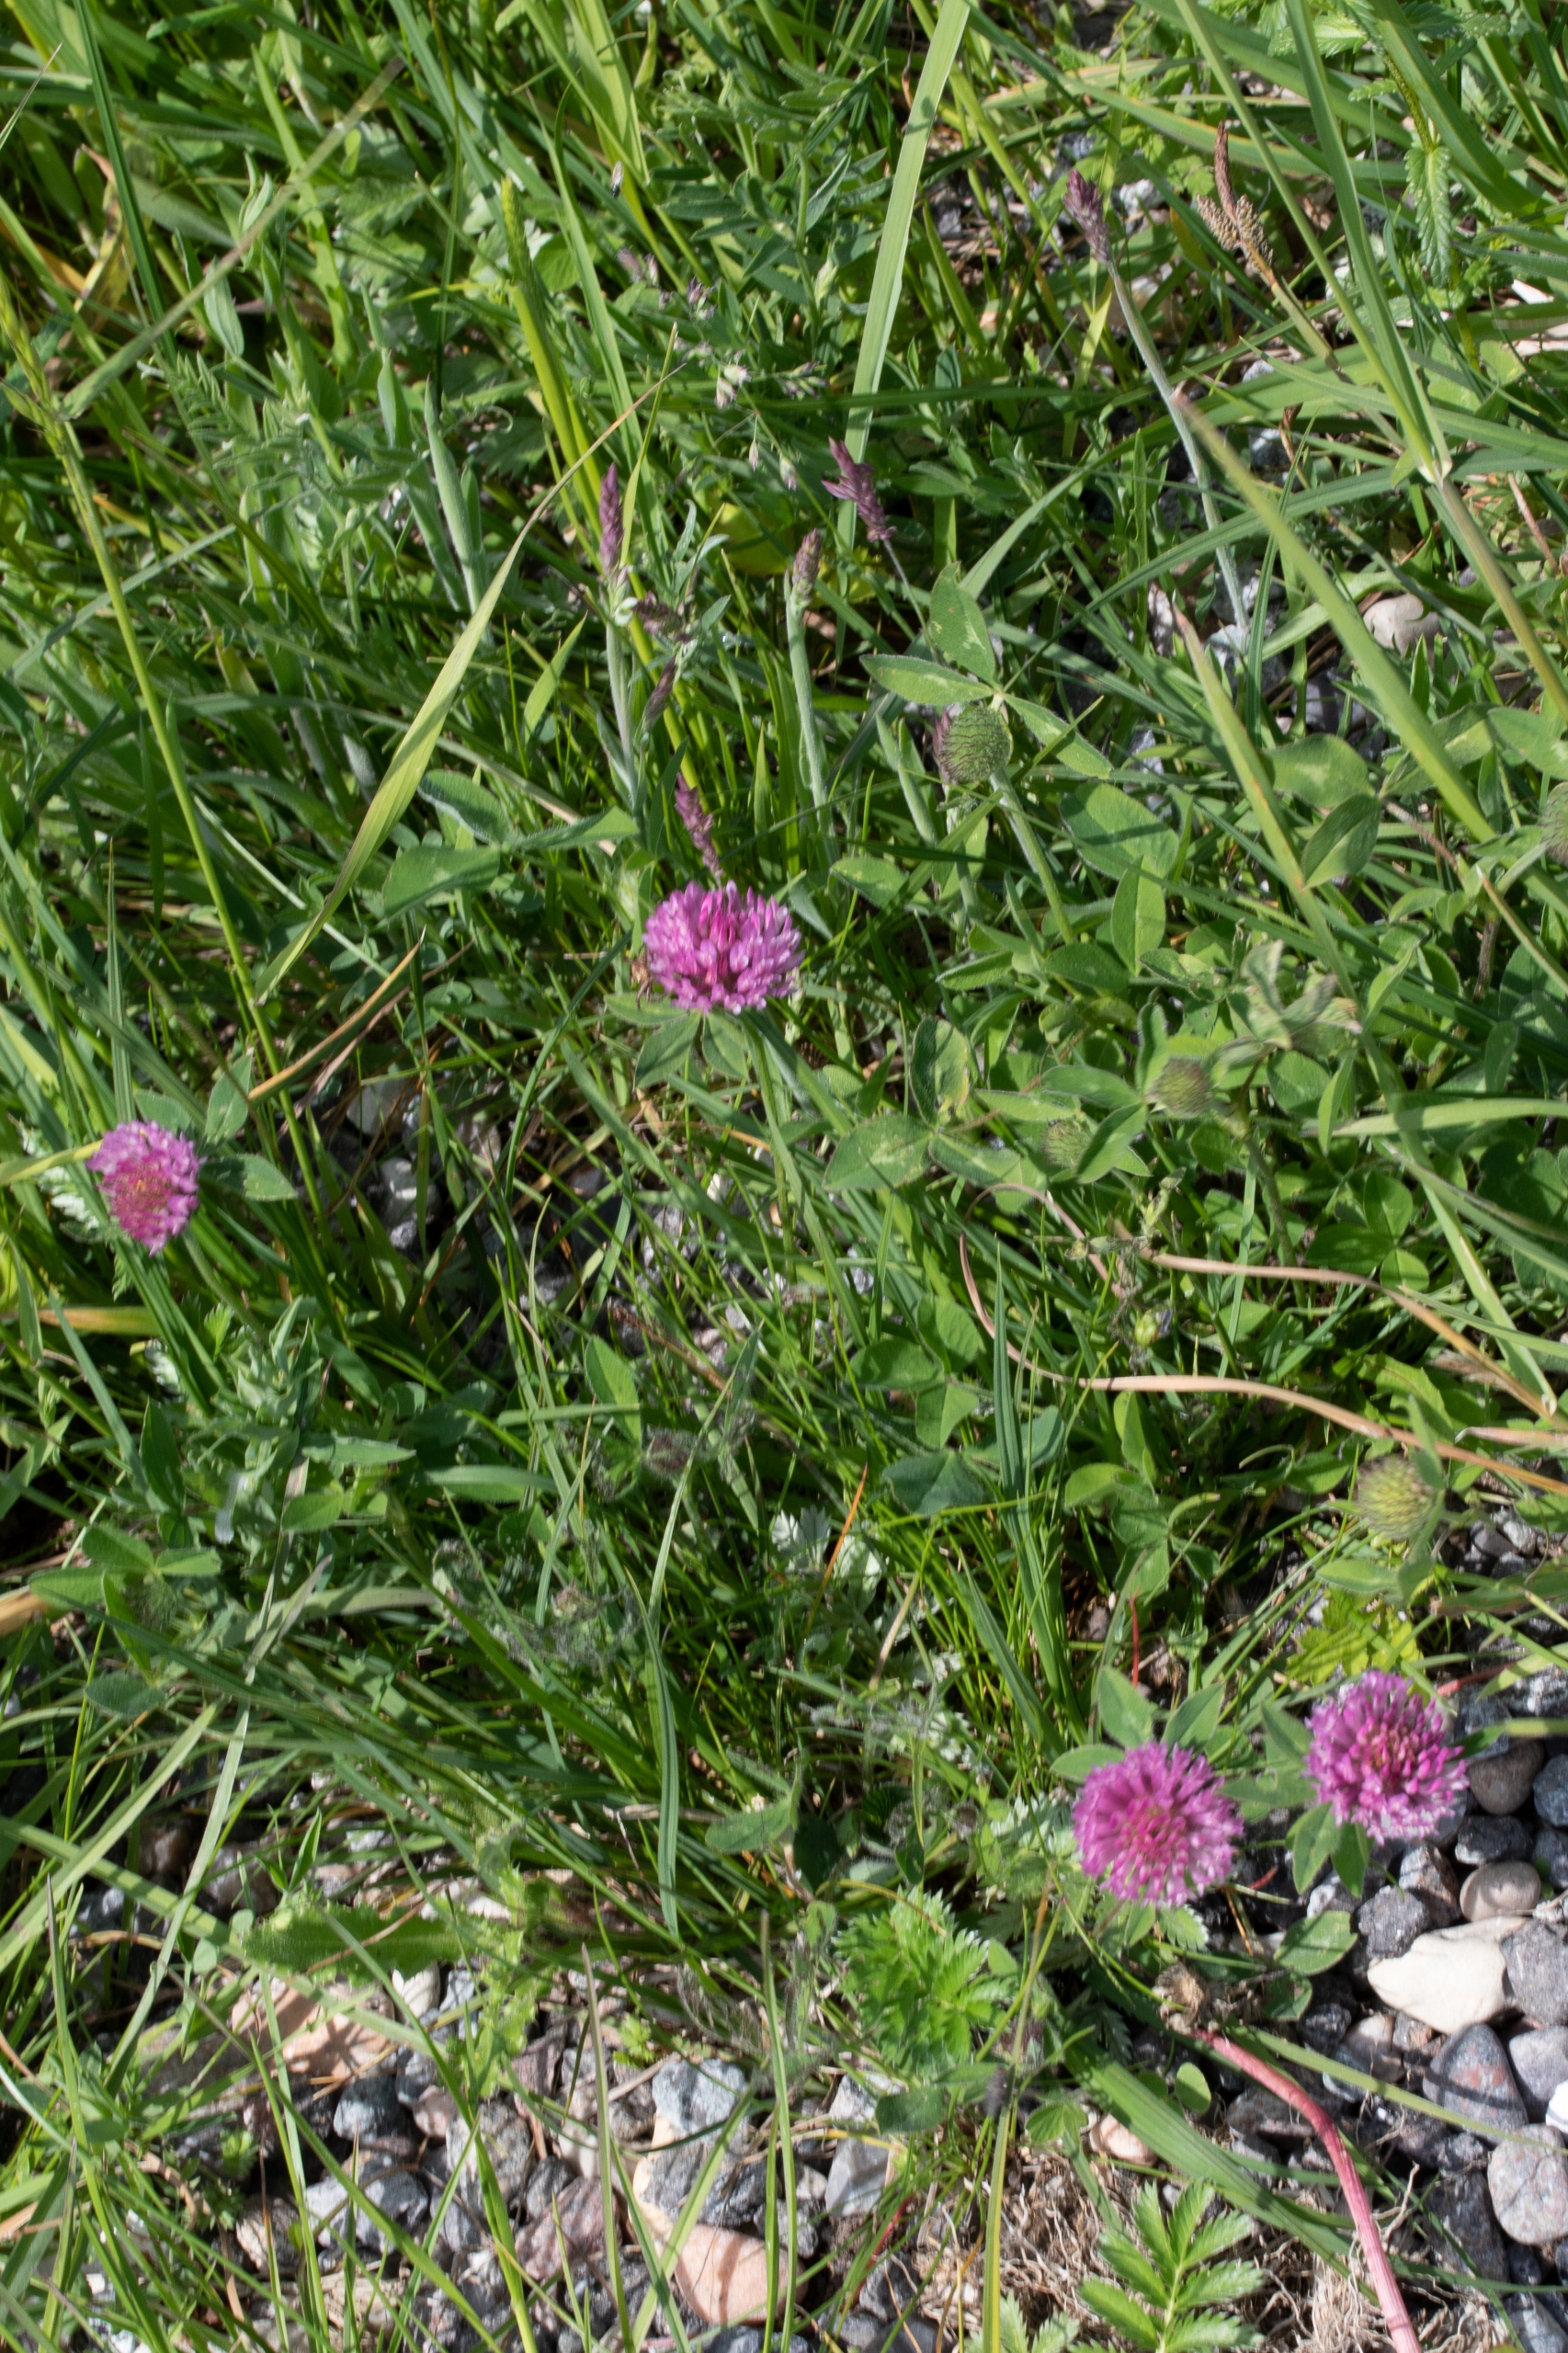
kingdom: Plantae
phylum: Tracheophyta
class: Magnoliopsida
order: Fabales
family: Fabaceae
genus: Trifolium
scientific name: Trifolium pratense
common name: Rød-kløver
